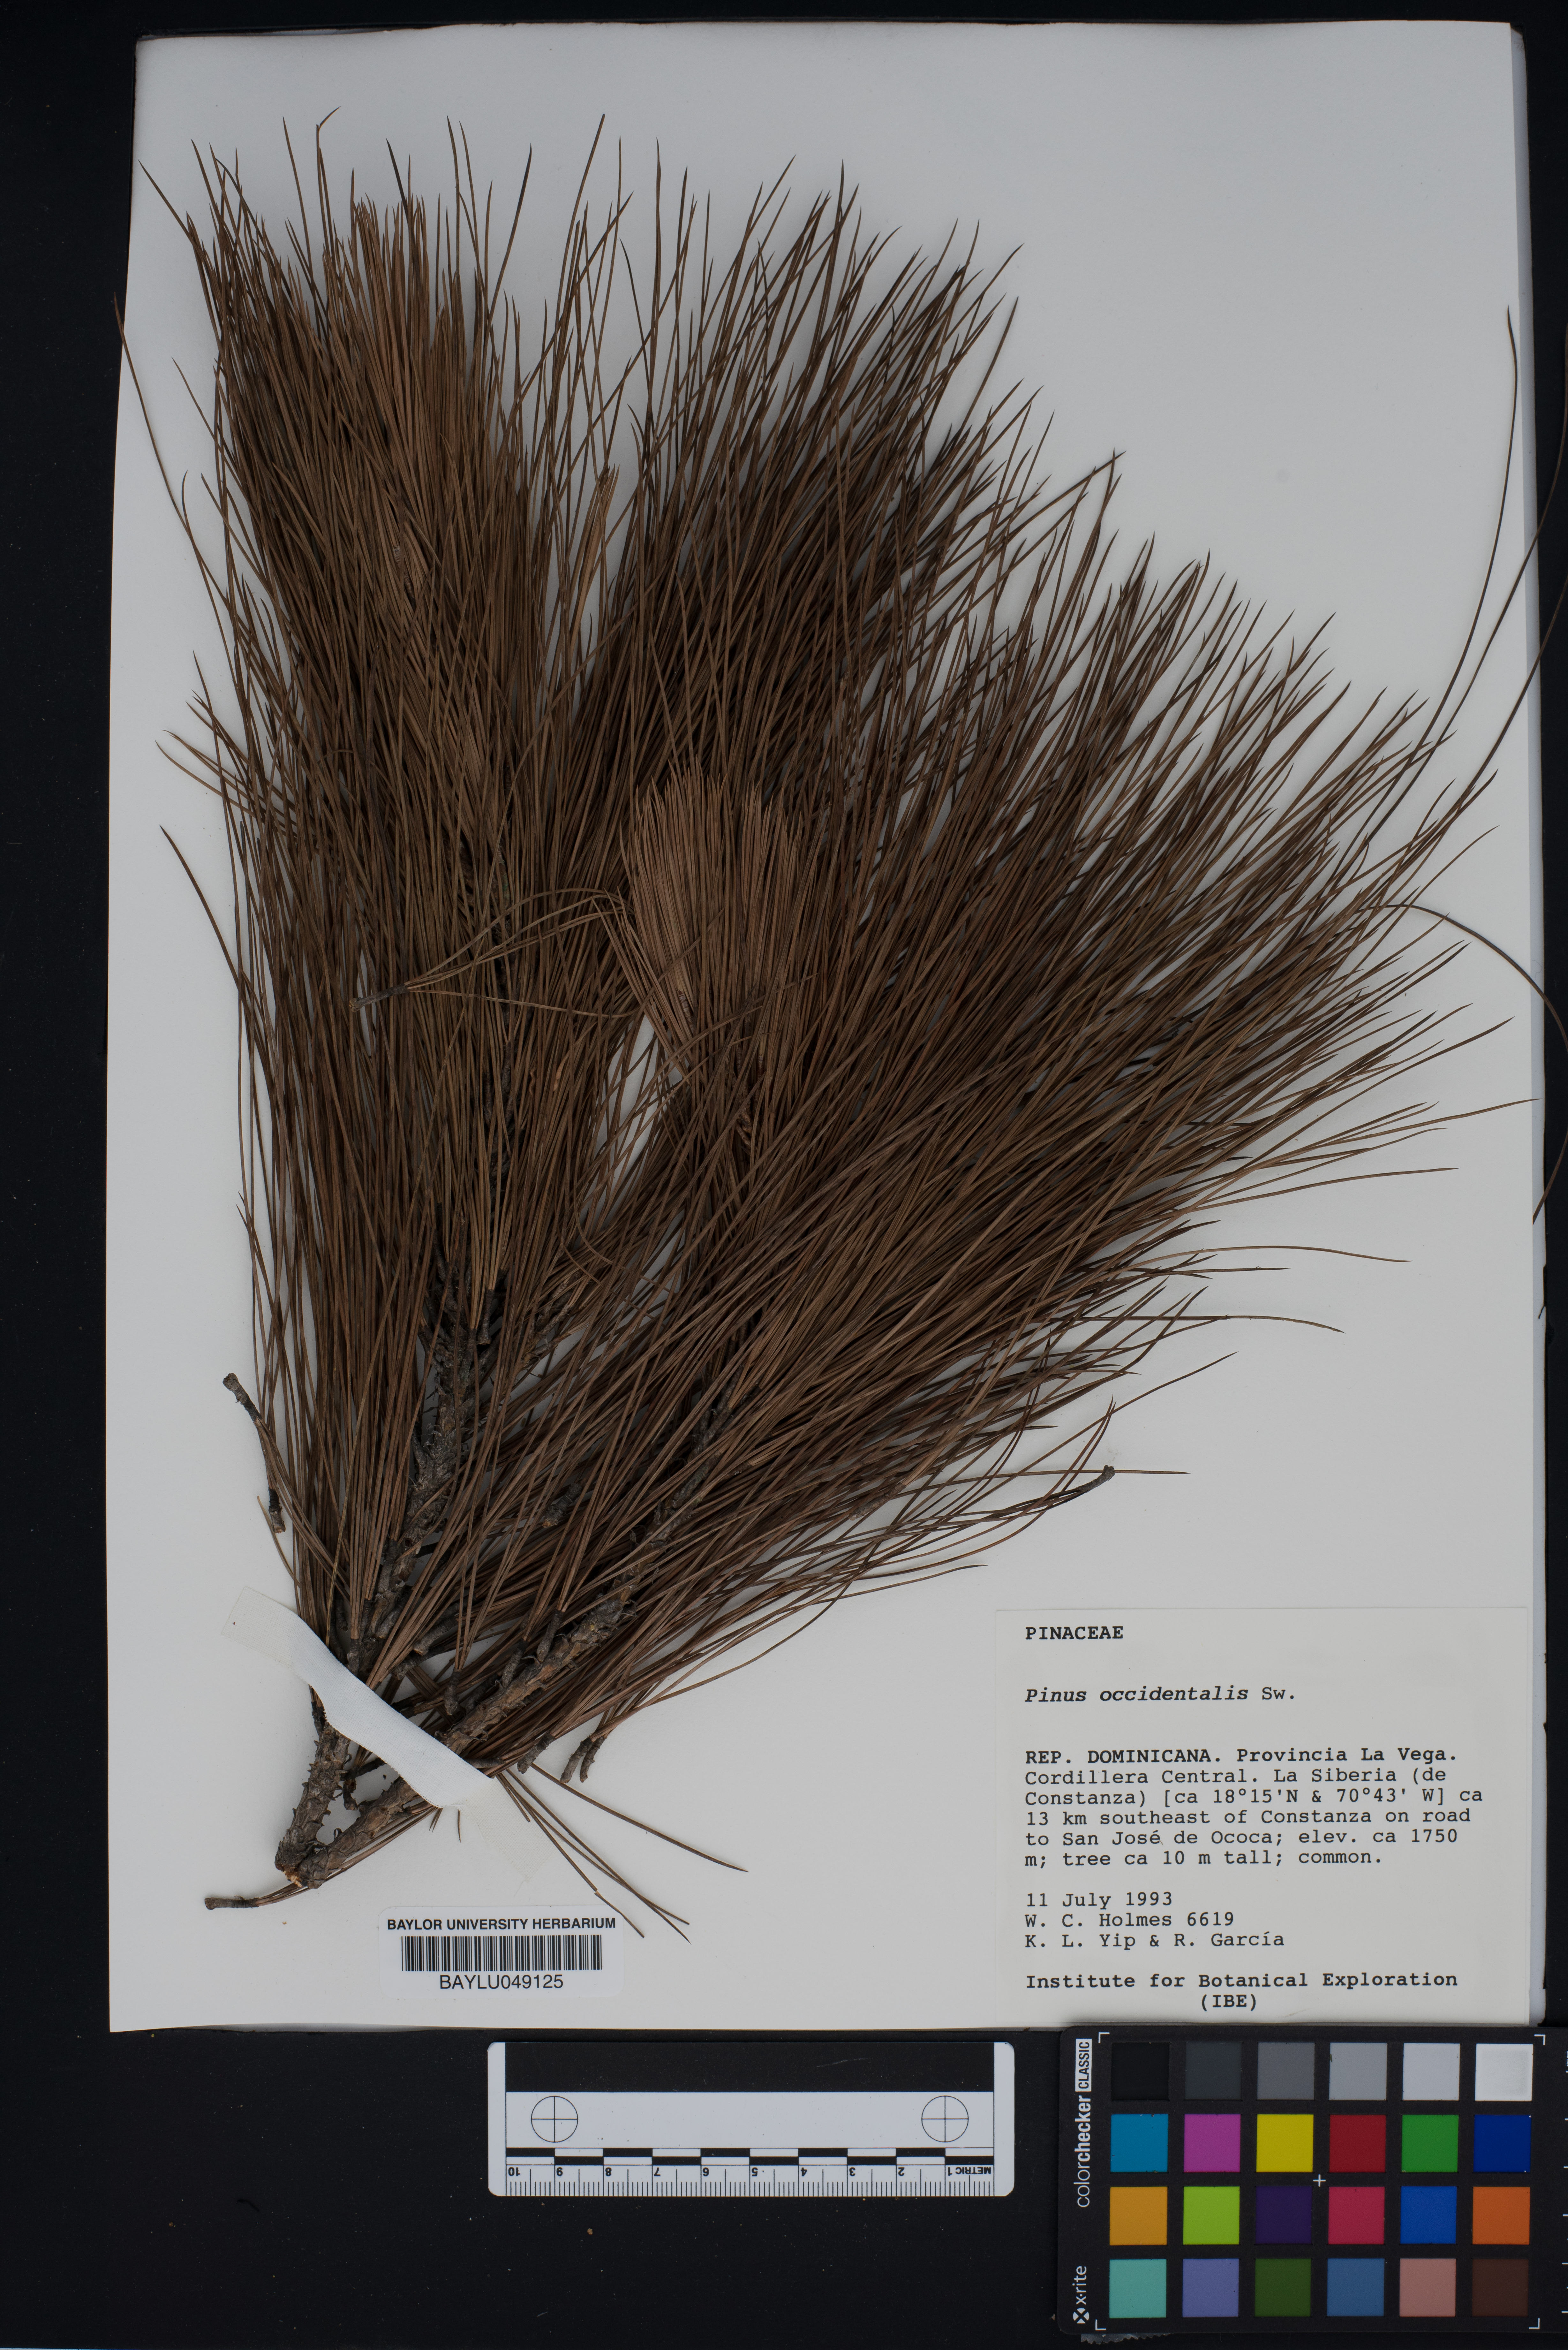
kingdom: Plantae
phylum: Tracheophyta
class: Pinopsida
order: Pinales
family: Pinaceae
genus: Pinus
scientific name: Pinus occidentalis
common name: Hispaniolan pine
